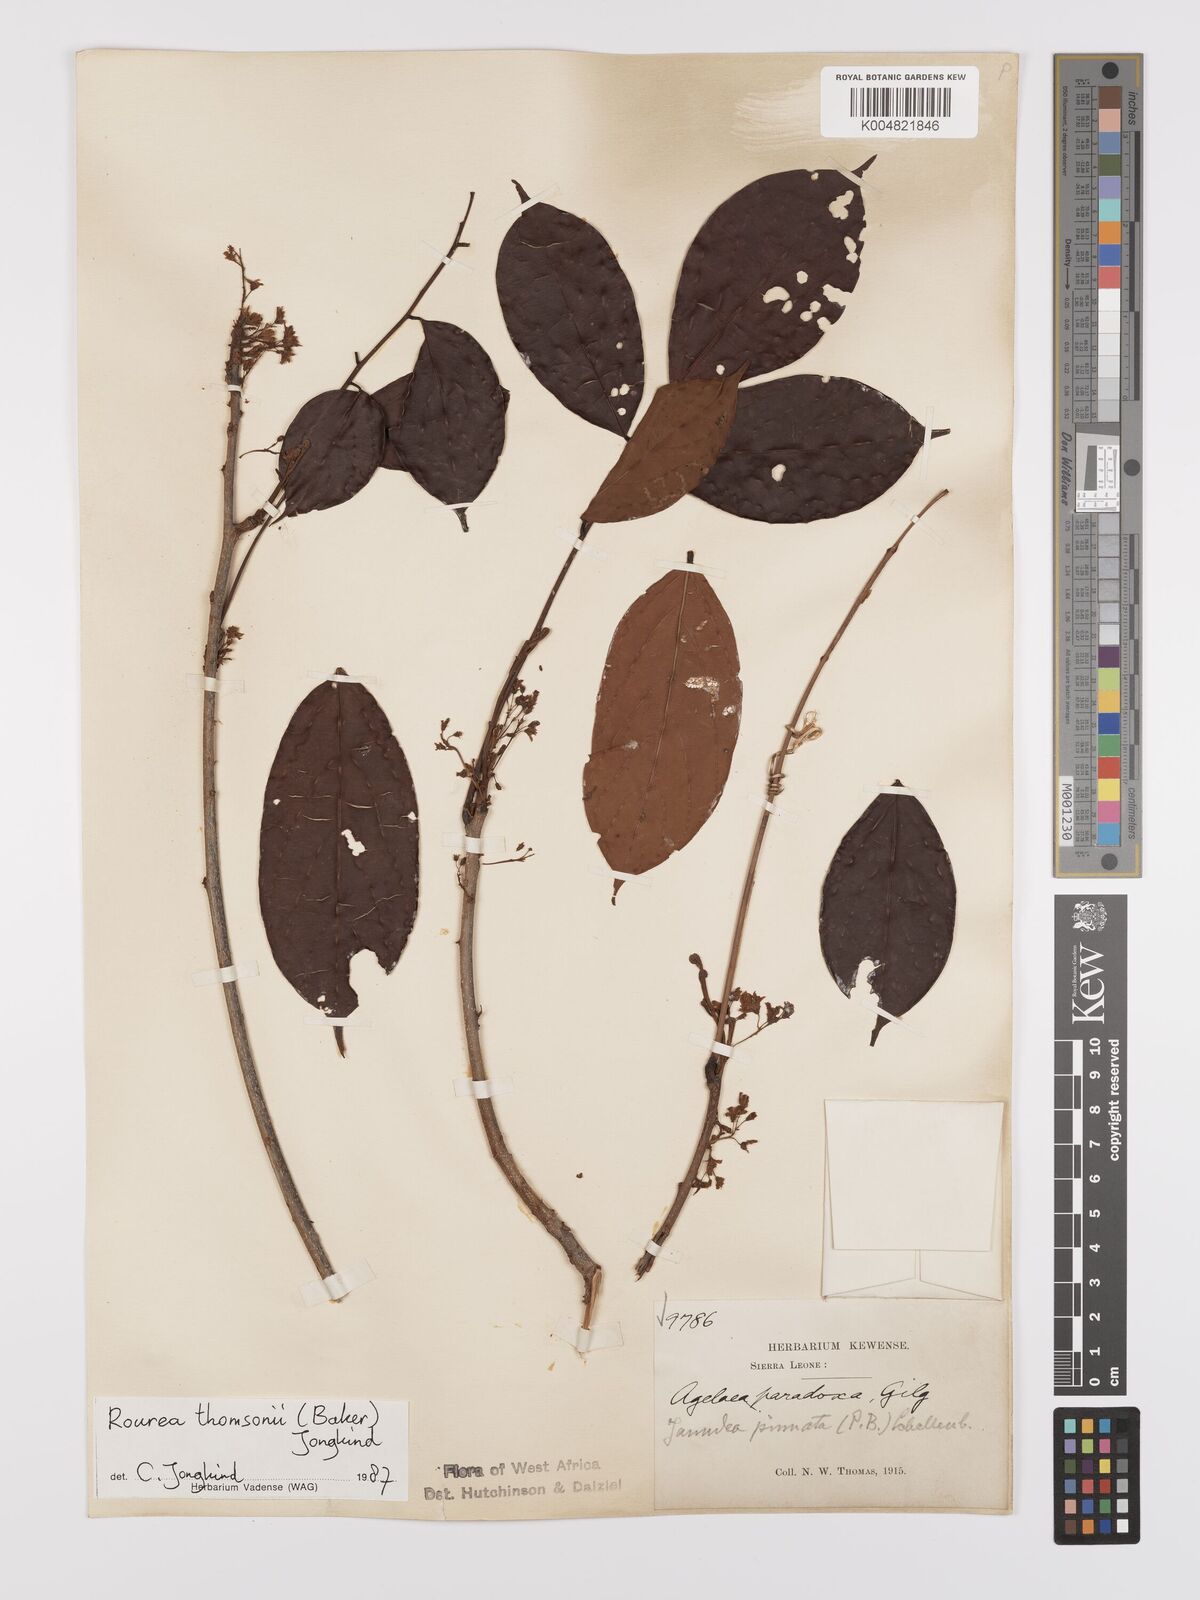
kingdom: Plantae
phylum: Tracheophyta
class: Magnoliopsida
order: Oxalidales
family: Connaraceae
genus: Rourea
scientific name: Rourea pinnata
